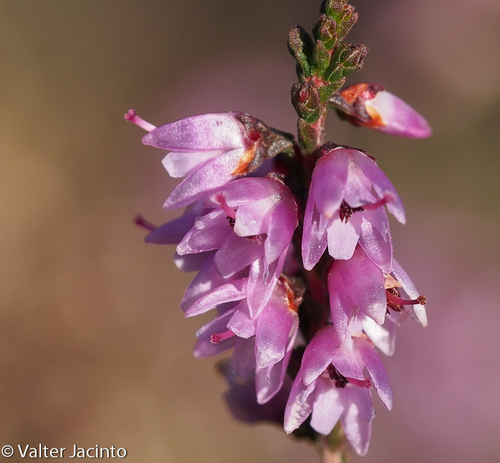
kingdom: Plantae
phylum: Tracheophyta
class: Magnoliopsida
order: Ericales
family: Ericaceae
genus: Calluna
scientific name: Calluna vulgaris
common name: Heather
